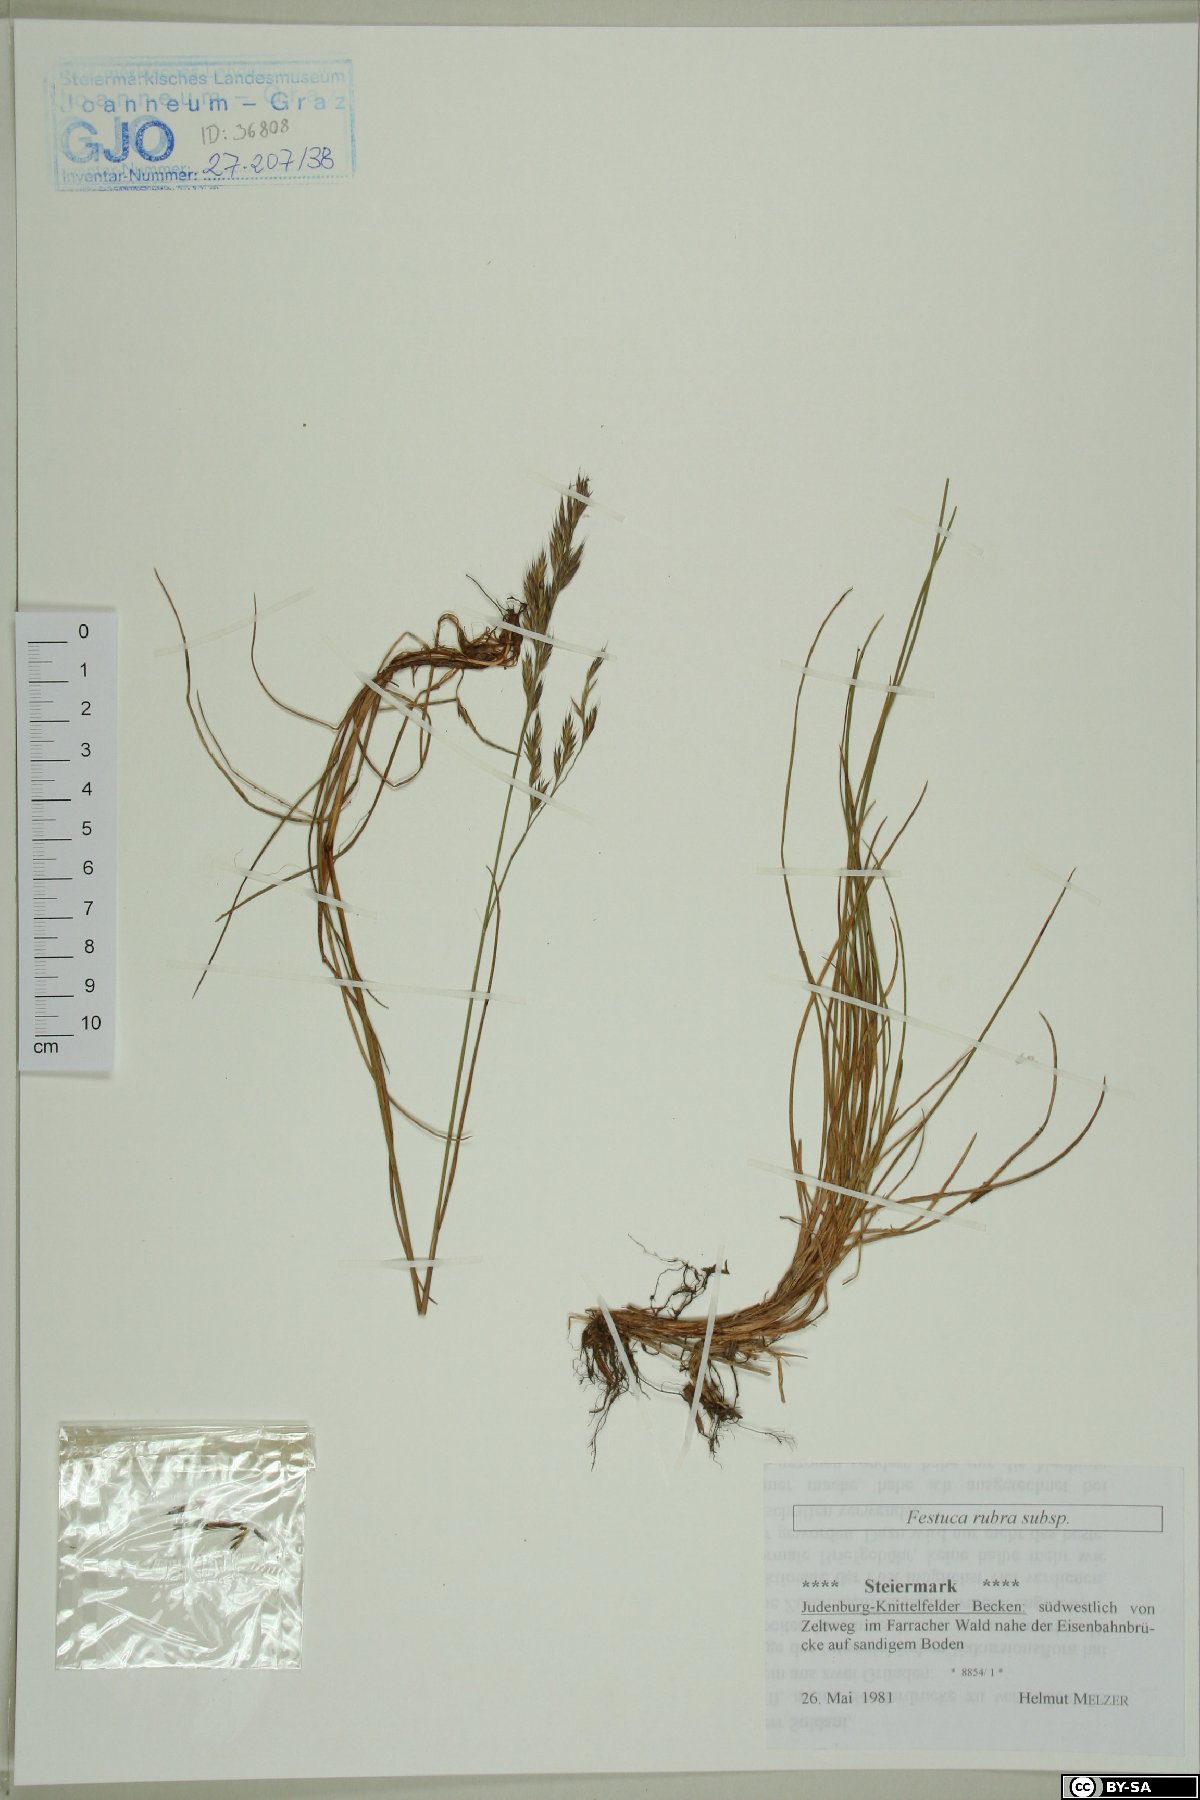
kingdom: Plantae
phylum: Tracheophyta
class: Liliopsida
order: Poales
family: Poaceae
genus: Festuca
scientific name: Festuca rubra
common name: Red fescue
